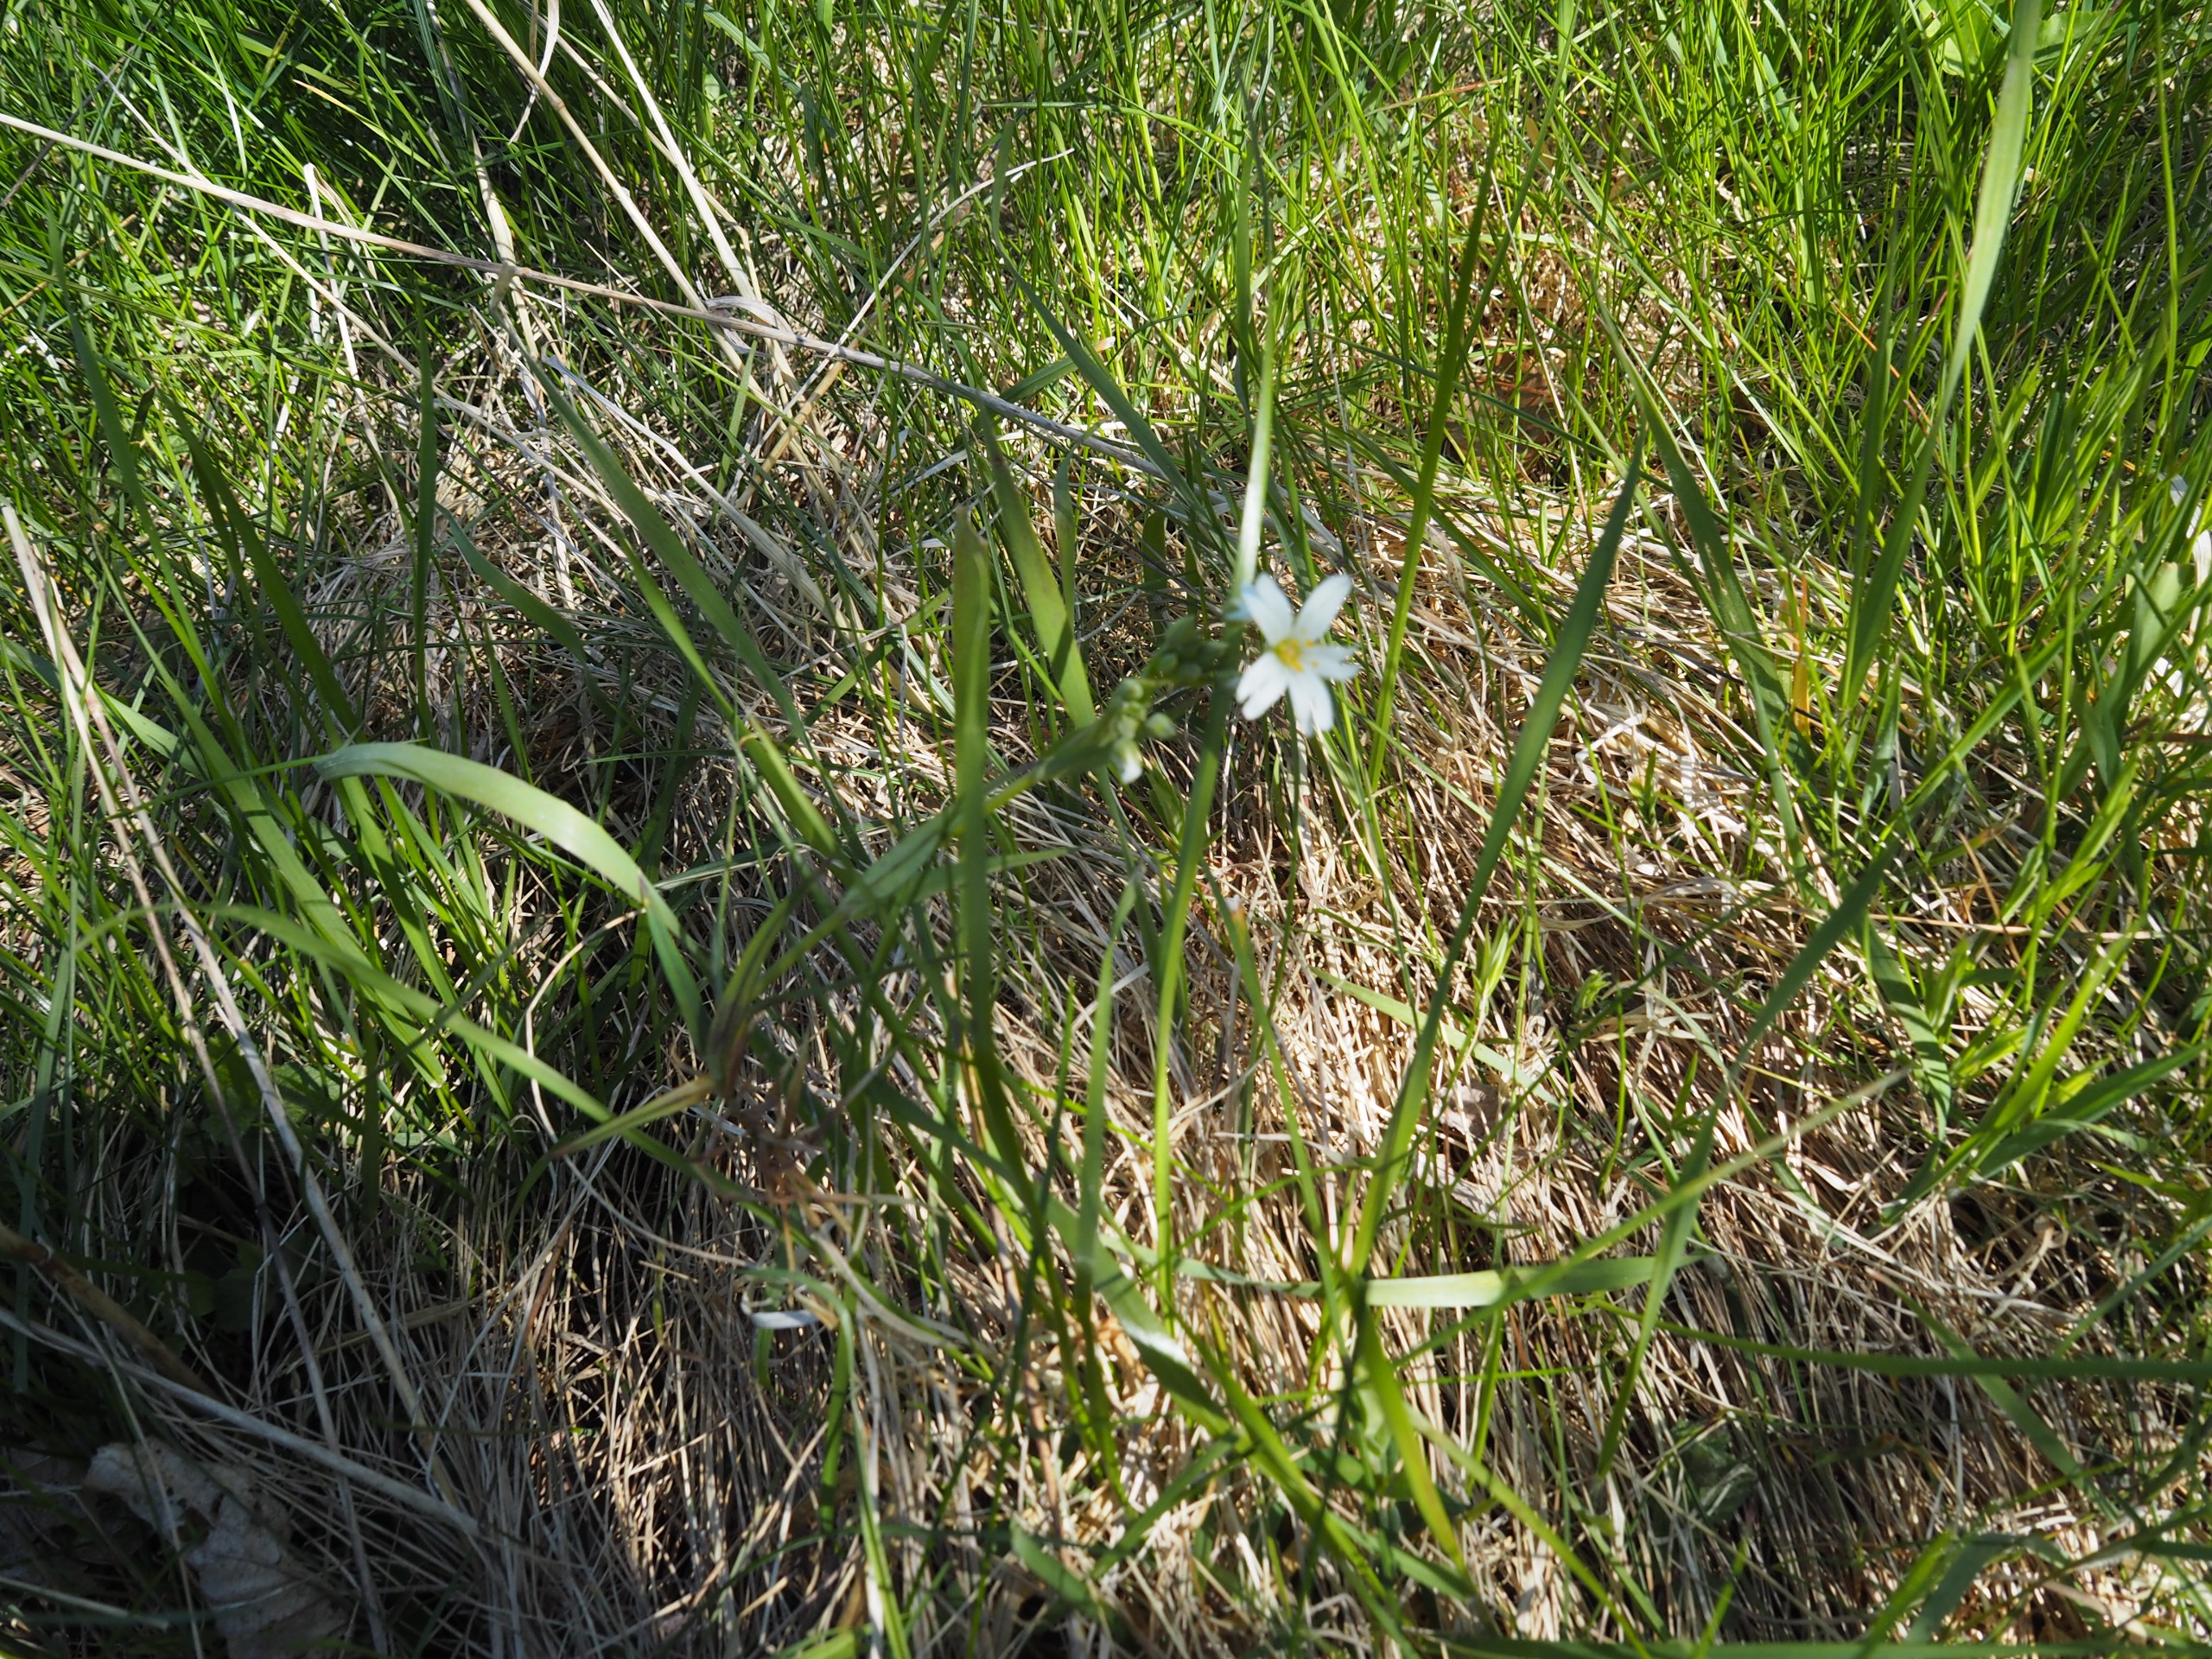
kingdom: Plantae
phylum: Tracheophyta
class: Magnoliopsida
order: Caryophyllales
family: Caryophyllaceae
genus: Rabelera
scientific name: Rabelera holostea
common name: Stor fladstjerne
